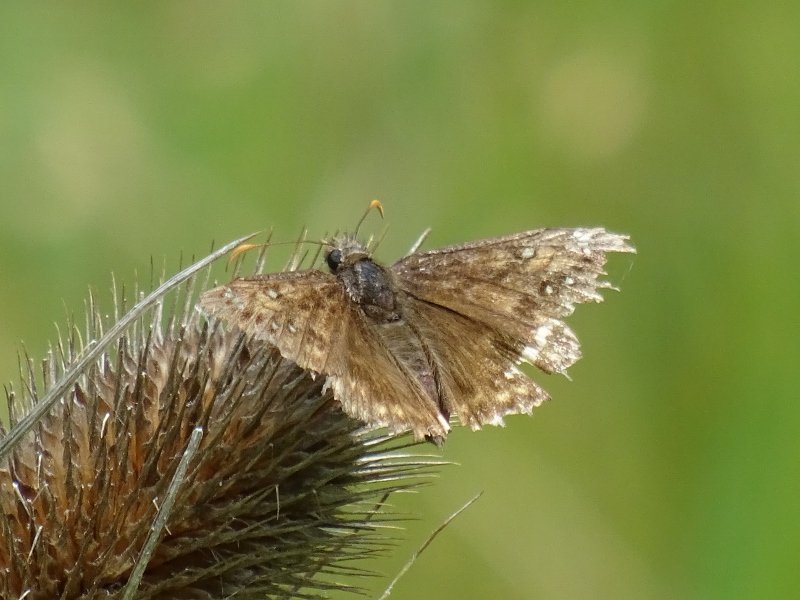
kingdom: Animalia
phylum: Arthropoda
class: Insecta
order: Lepidoptera
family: Hesperiidae
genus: Gesta
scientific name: Gesta
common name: Juvenal's Duskywing
